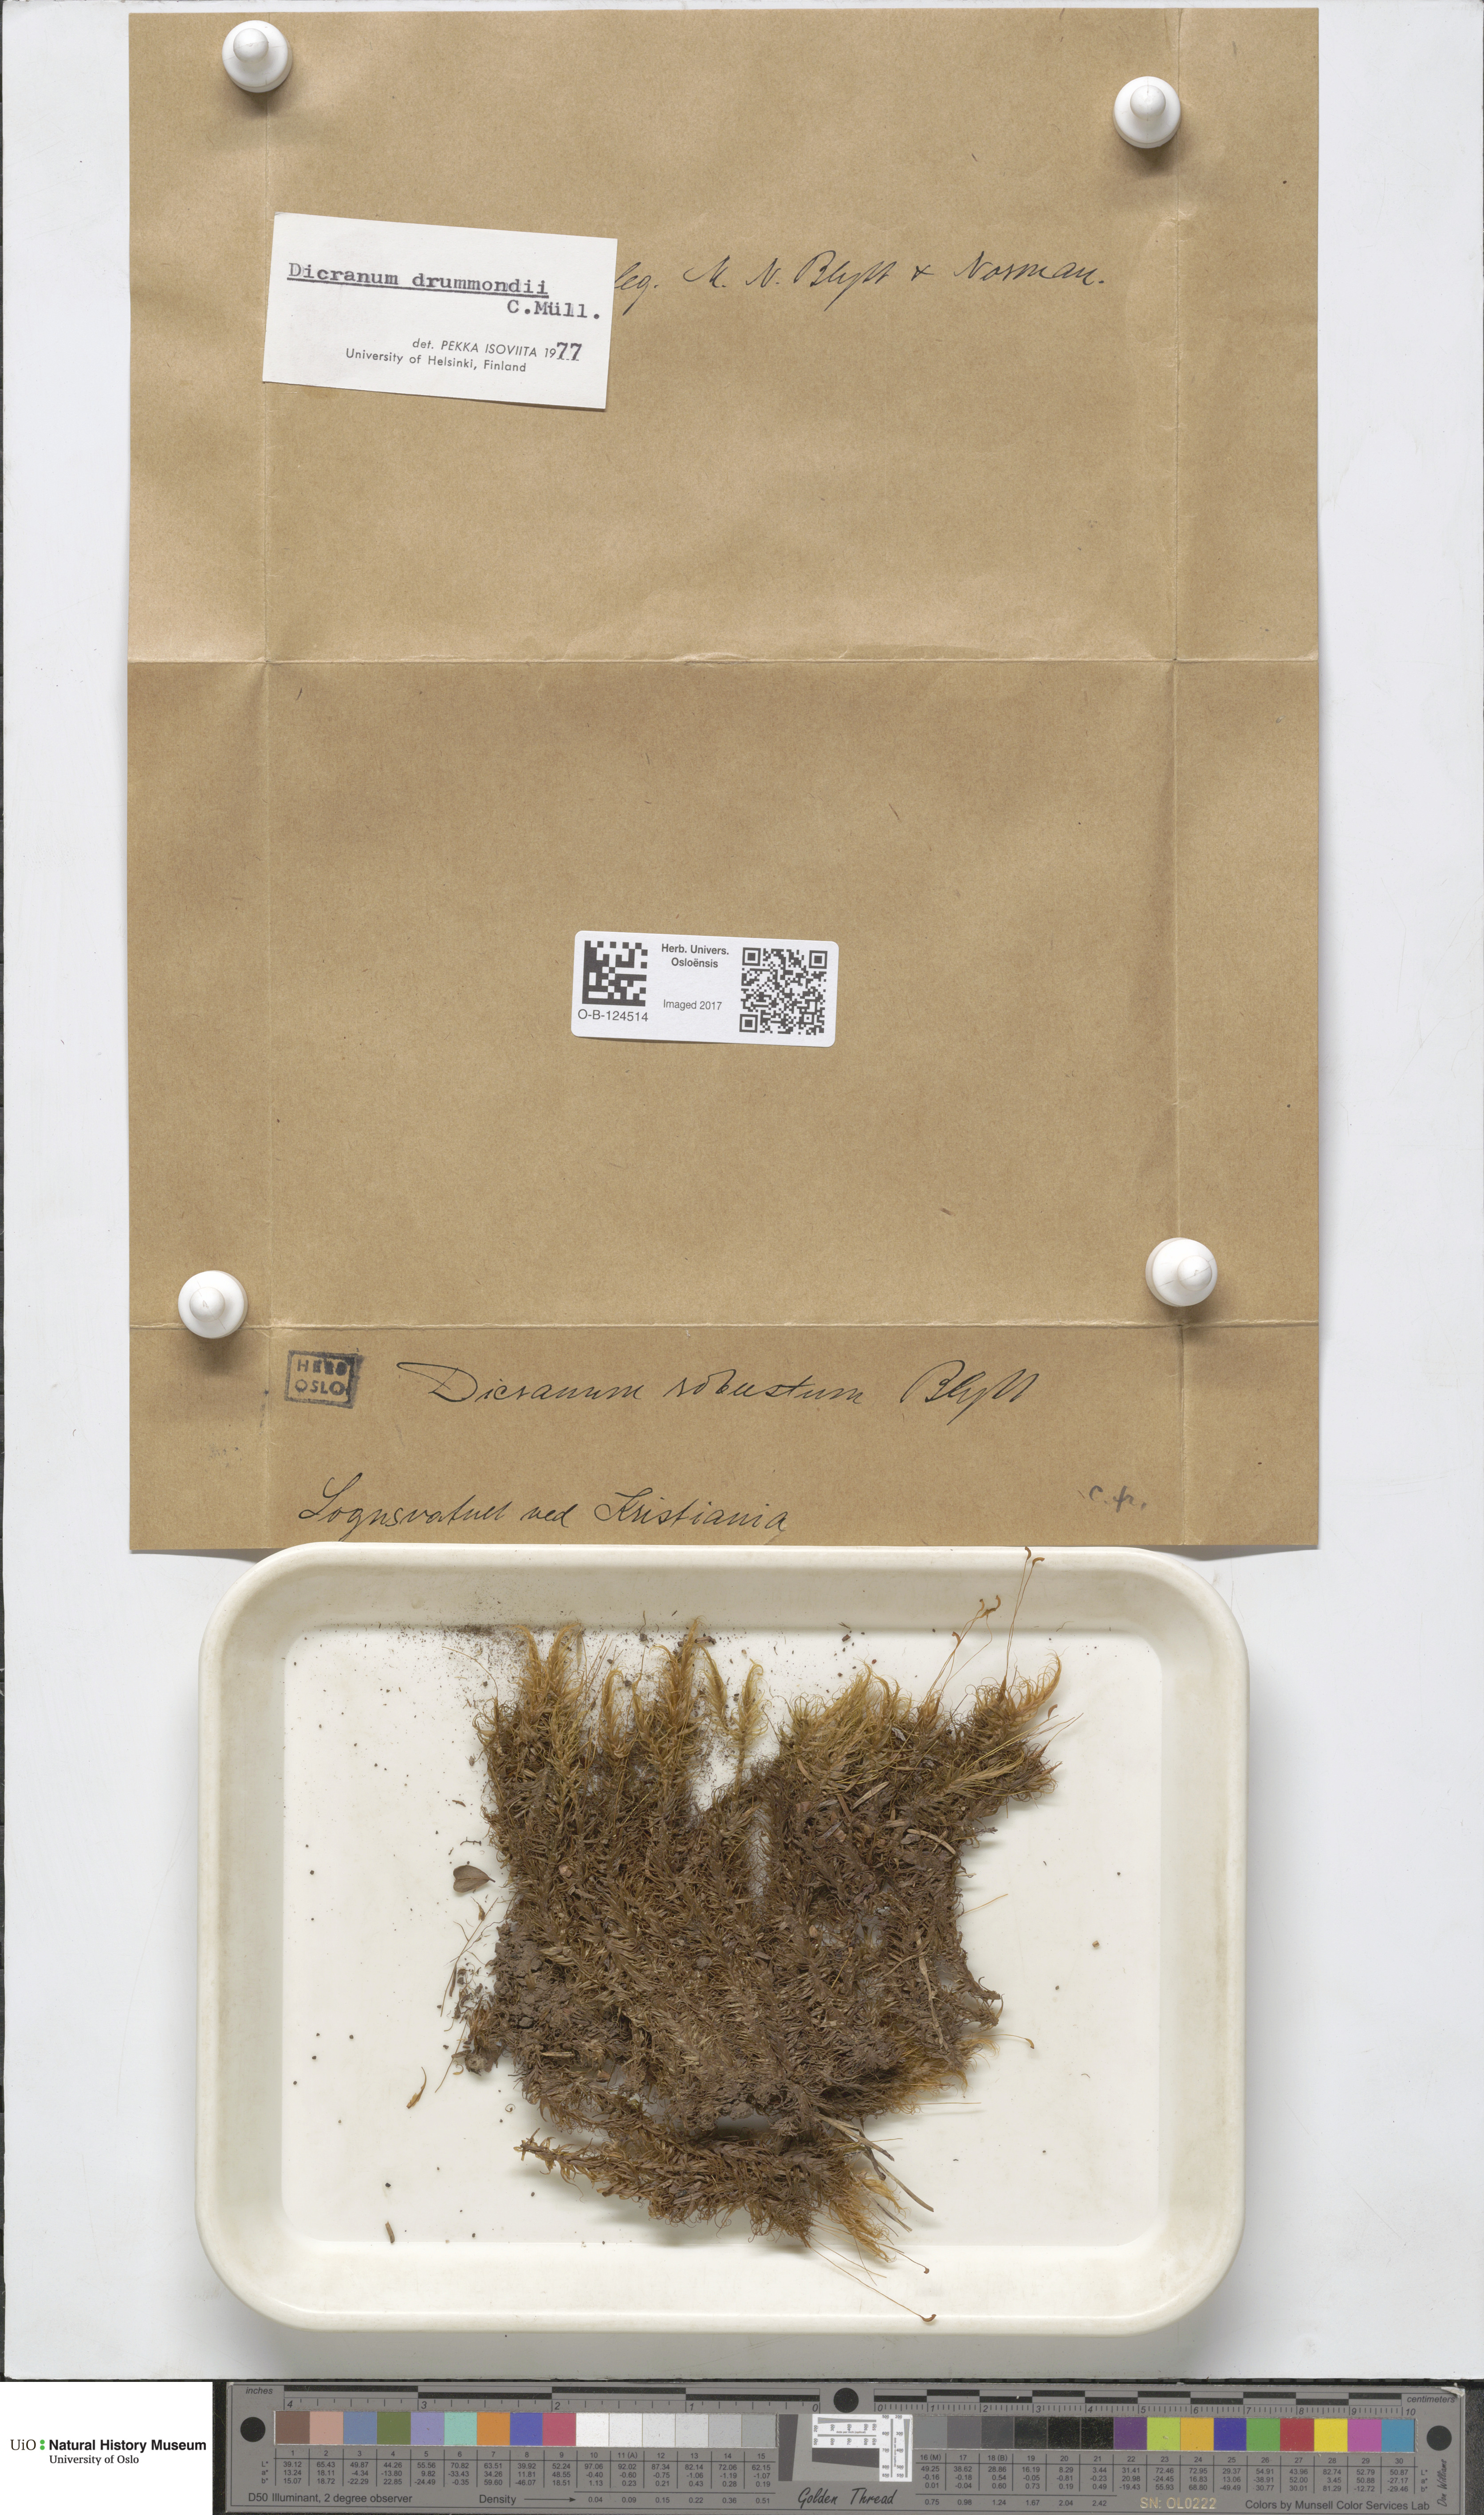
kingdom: Plantae
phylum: Bryophyta
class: Bryopsida
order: Dicranales
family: Dicranaceae
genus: Dicranum
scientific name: Dicranum drummondii
